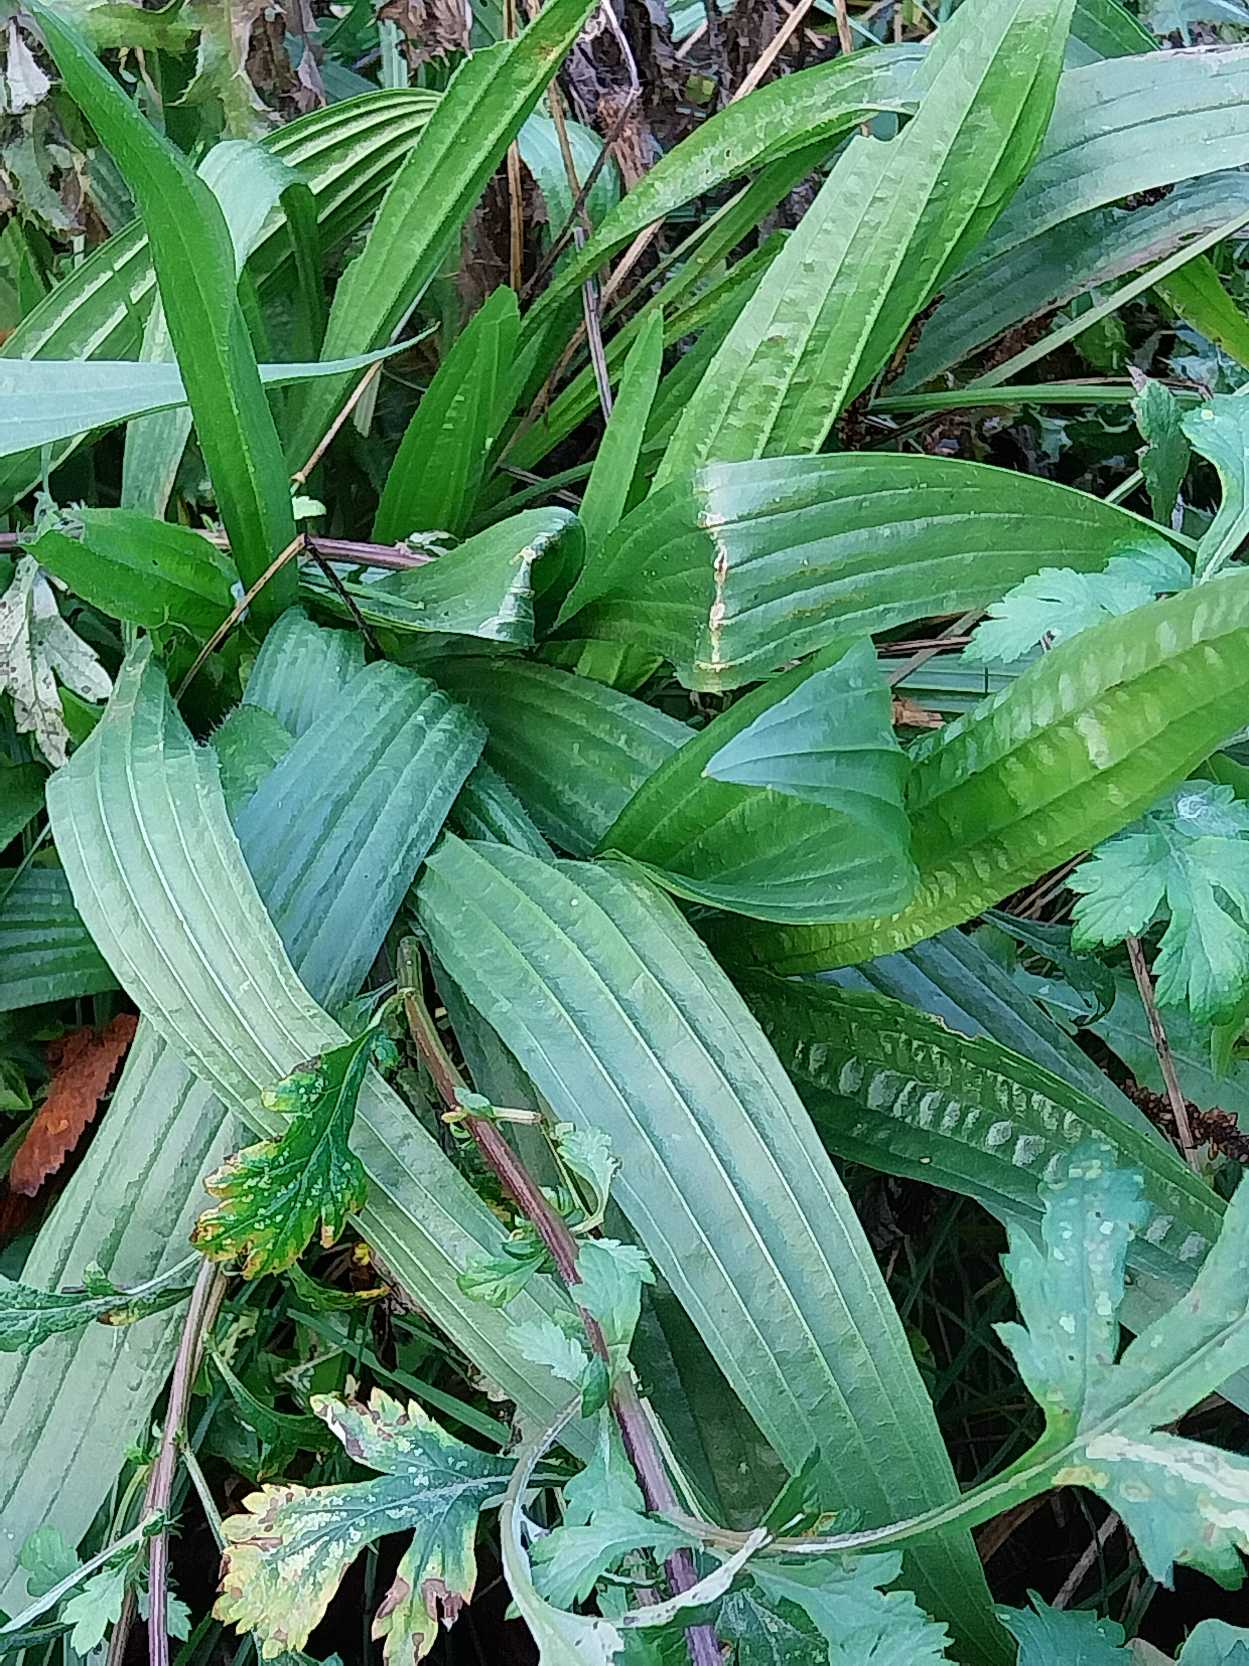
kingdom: Plantae
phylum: Tracheophyta
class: Magnoliopsida
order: Lamiales
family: Plantaginaceae
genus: Plantago
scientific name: Plantago lanceolata
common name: Lancet-vejbred
